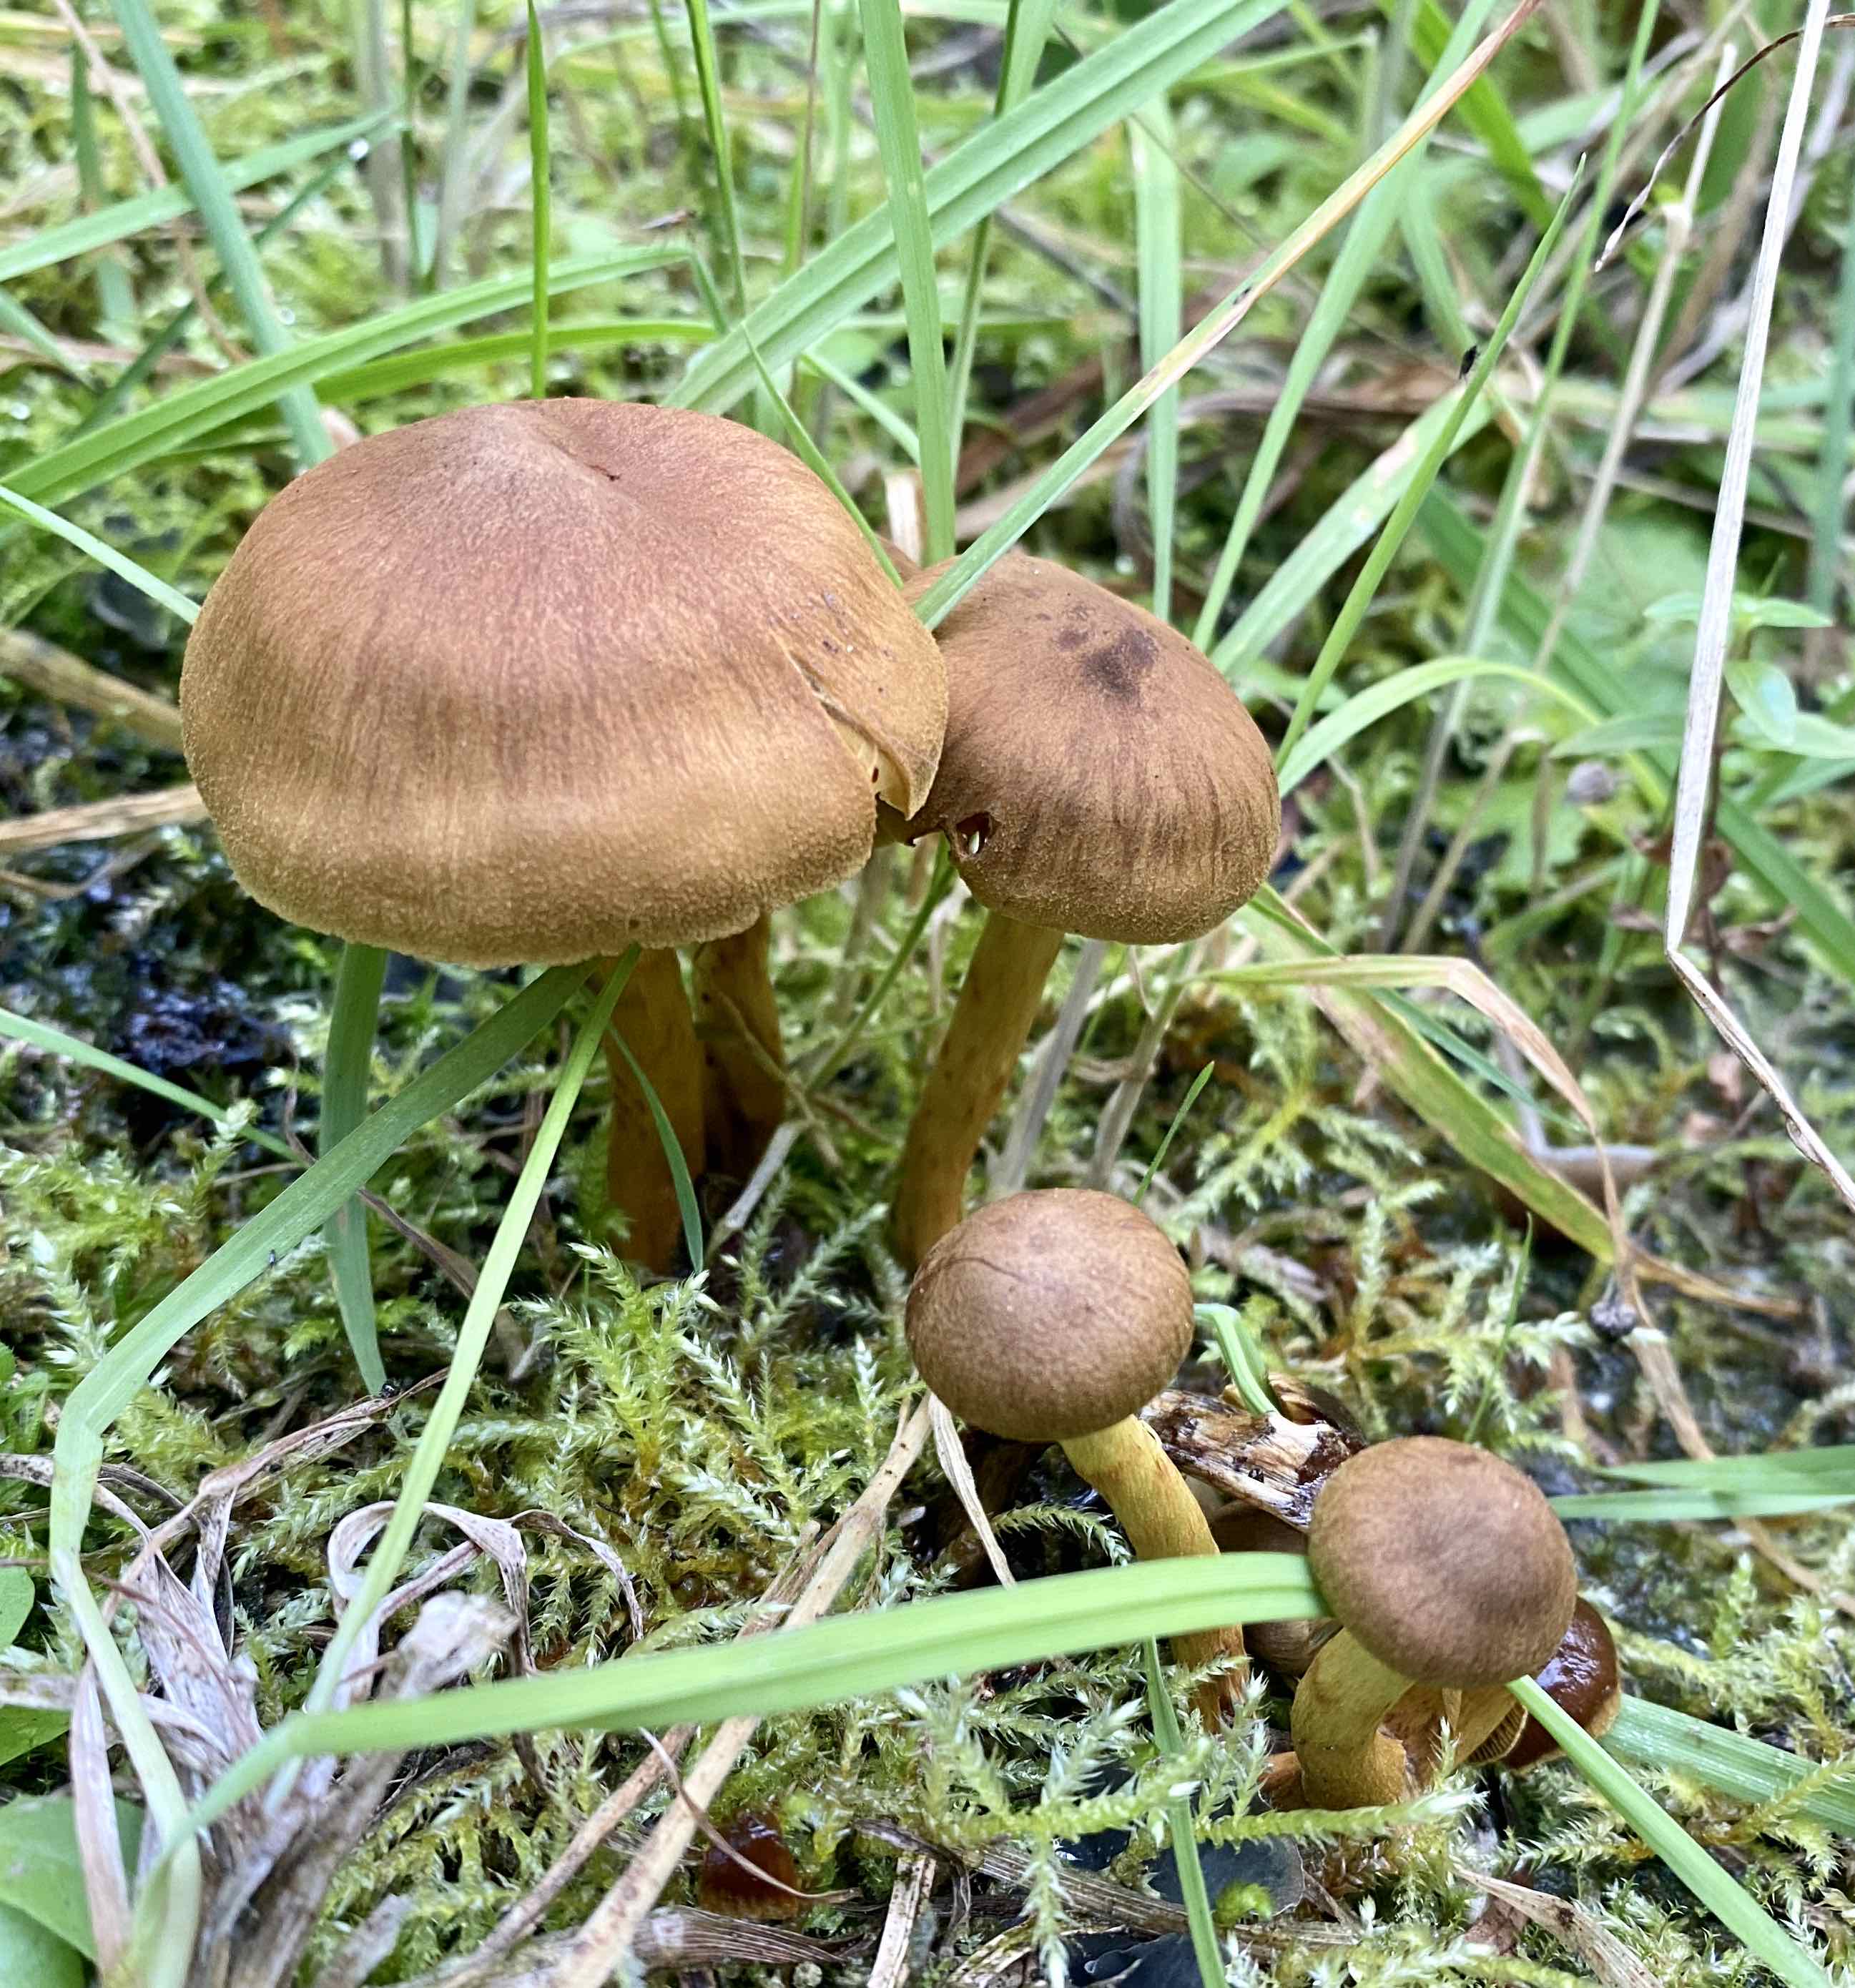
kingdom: Fungi
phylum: Basidiomycota
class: Agaricomycetes
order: Agaricales
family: Cortinariaceae
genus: Cortinarius
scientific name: Cortinarius
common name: gulbladet slørhat
